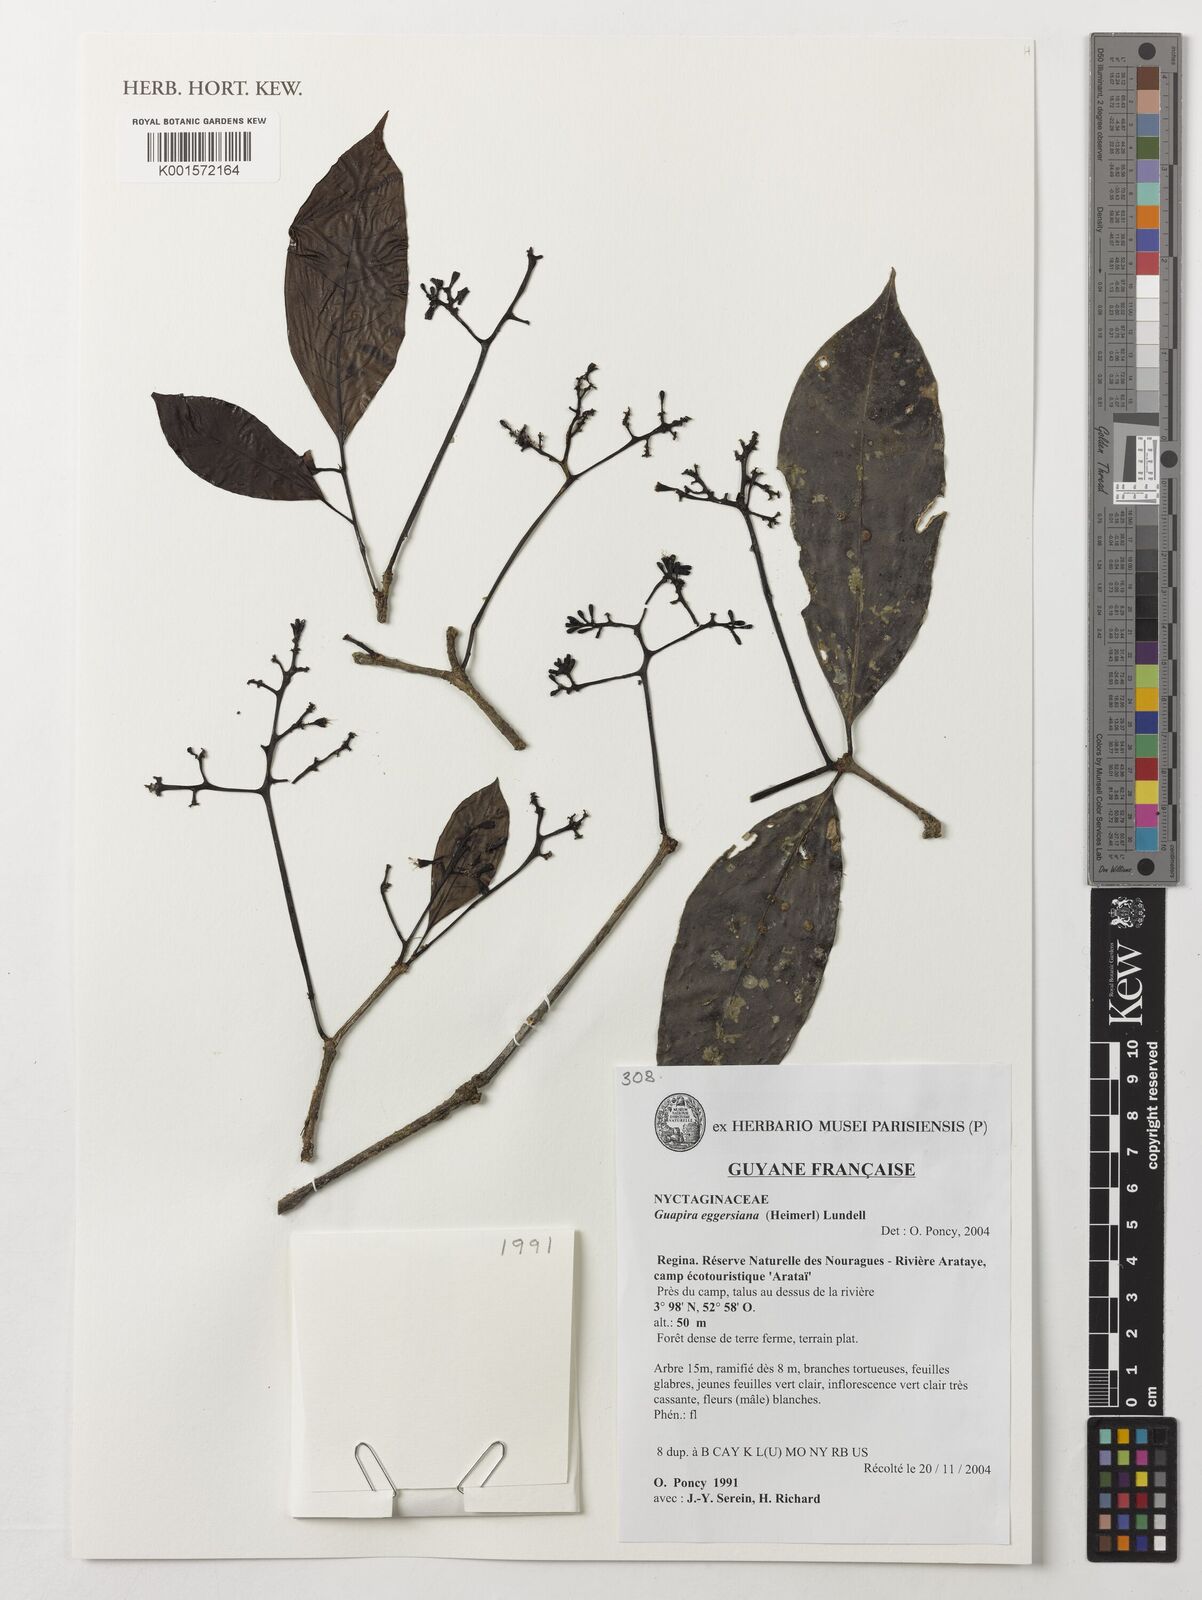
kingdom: Plantae
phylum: Tracheophyta
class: Magnoliopsida
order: Caryophyllales
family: Nyctaginaceae
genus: Guapira
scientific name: Guapira eggersiana
